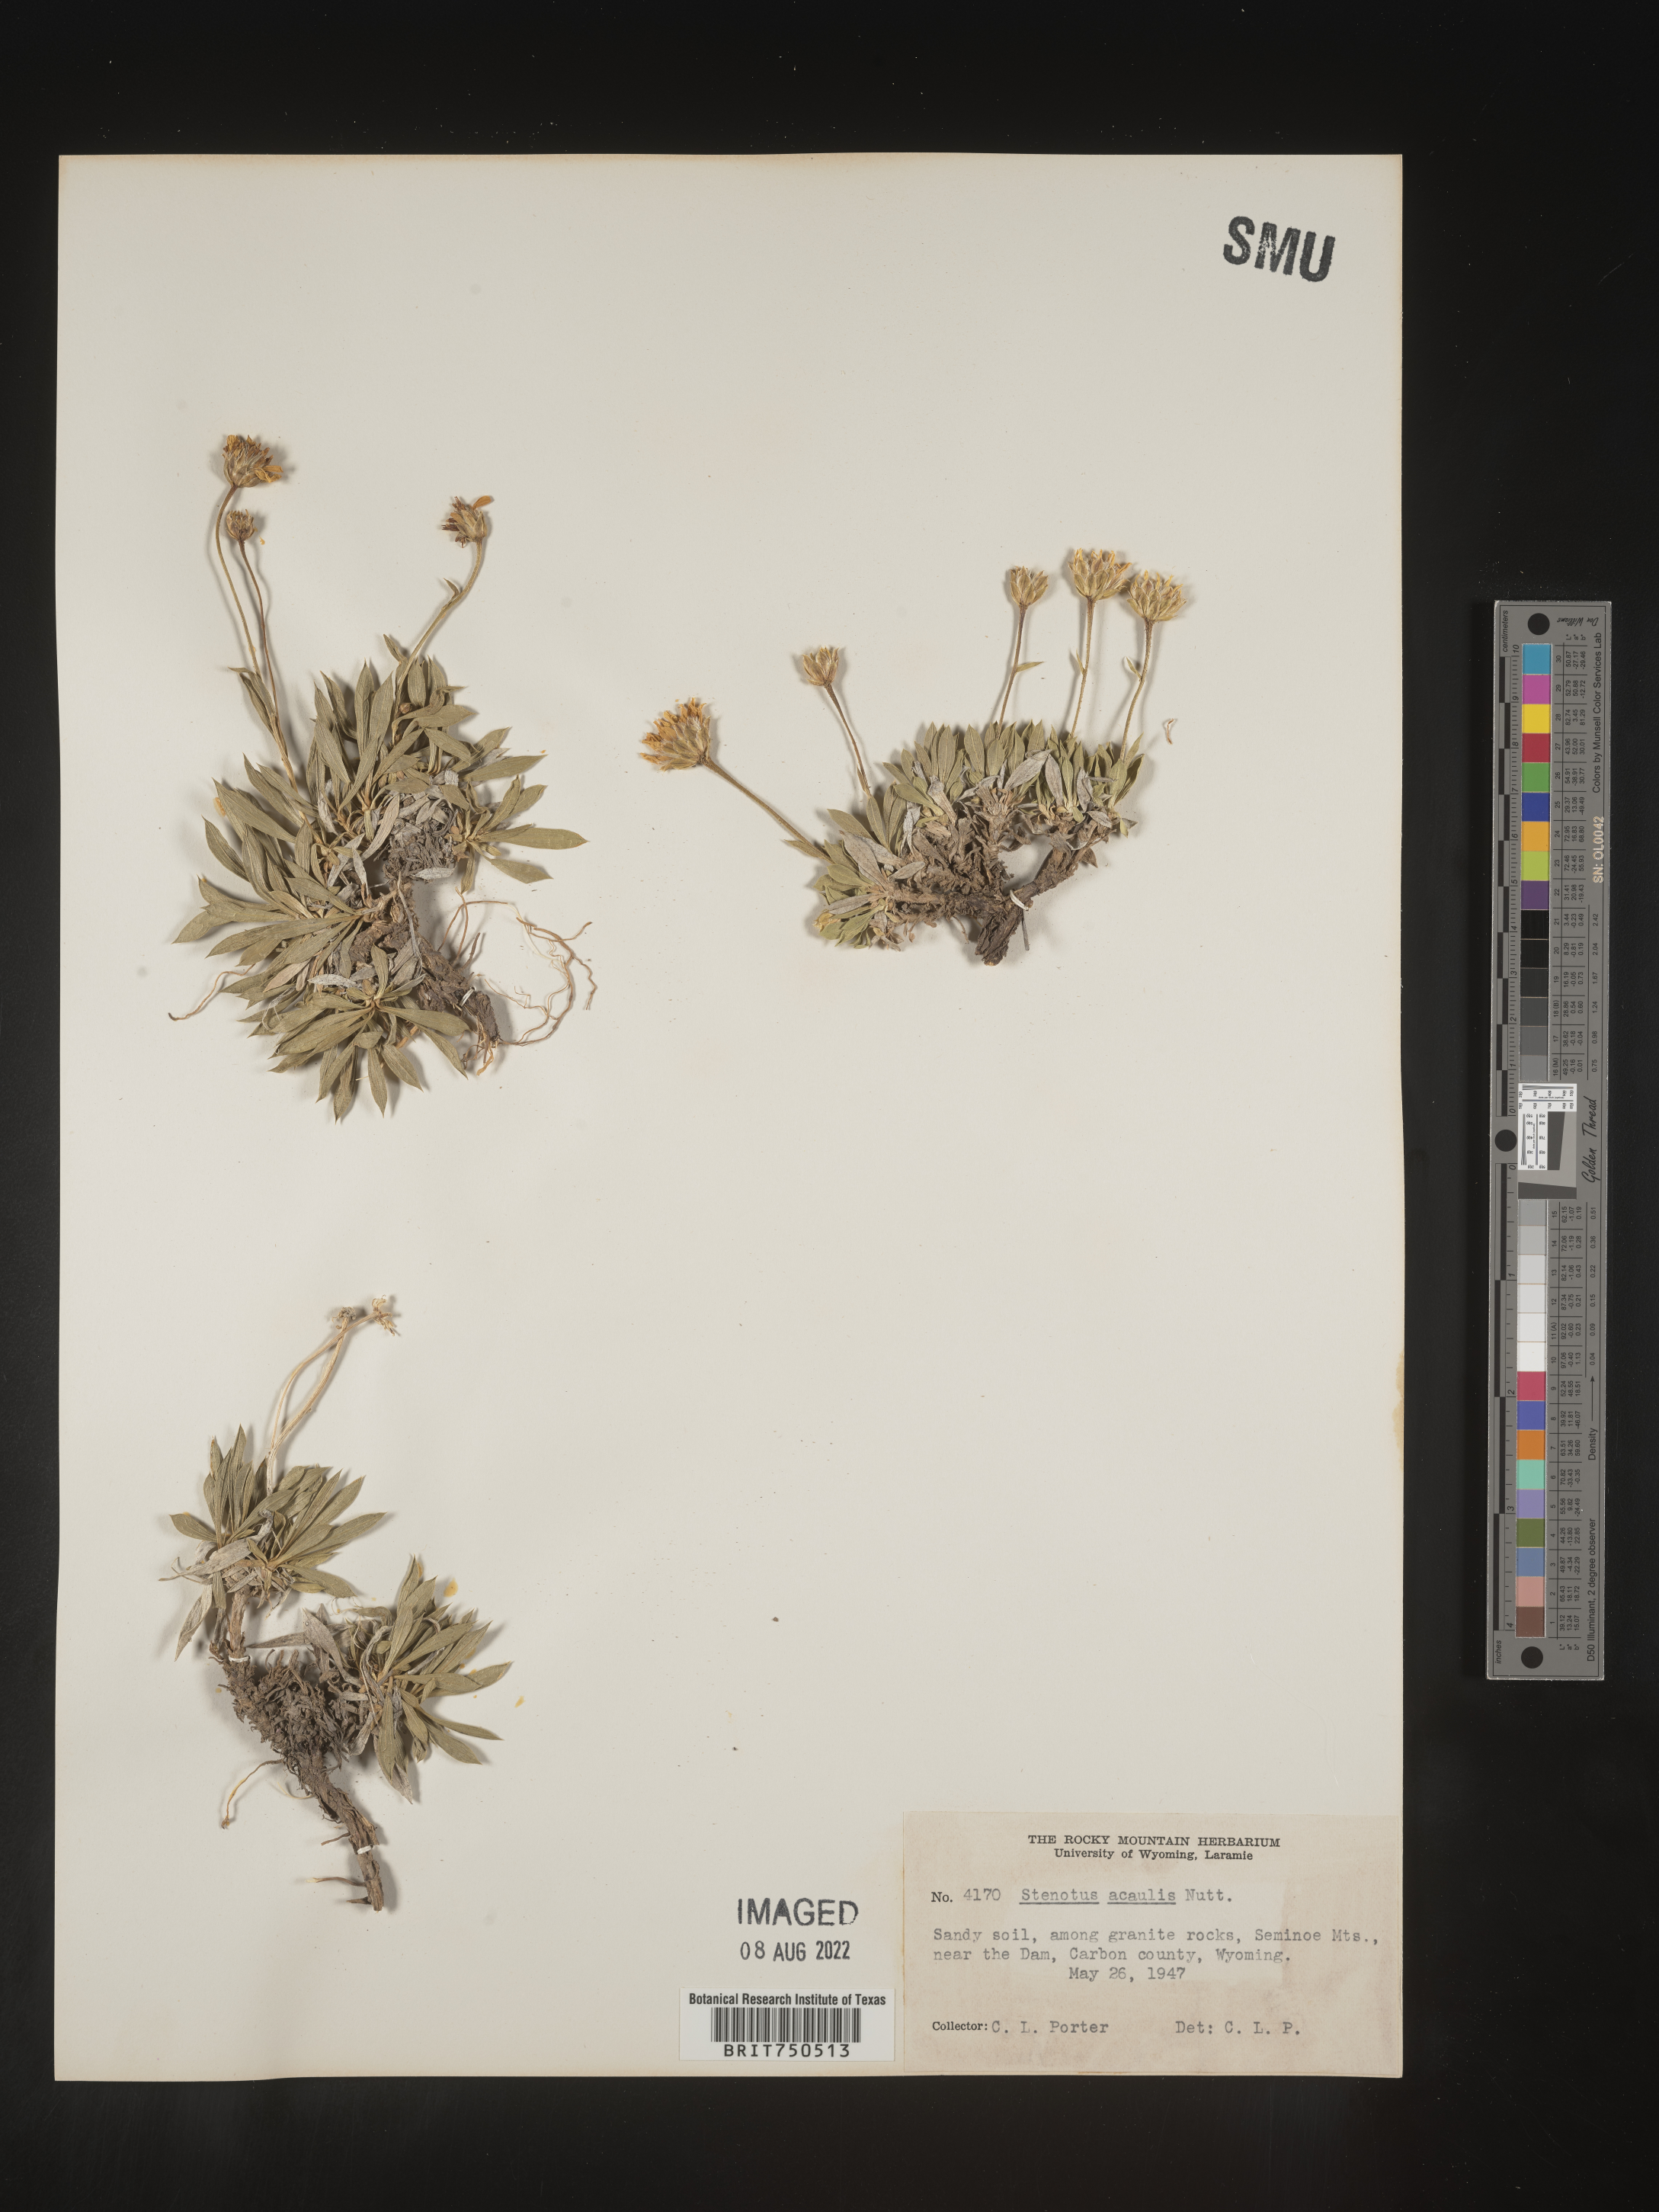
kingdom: Plantae
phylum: Tracheophyta
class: Magnoliopsida
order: Asterales
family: Asteraceae
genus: Stenotus
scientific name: Stenotus acaulis
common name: Stemless goldenweed
